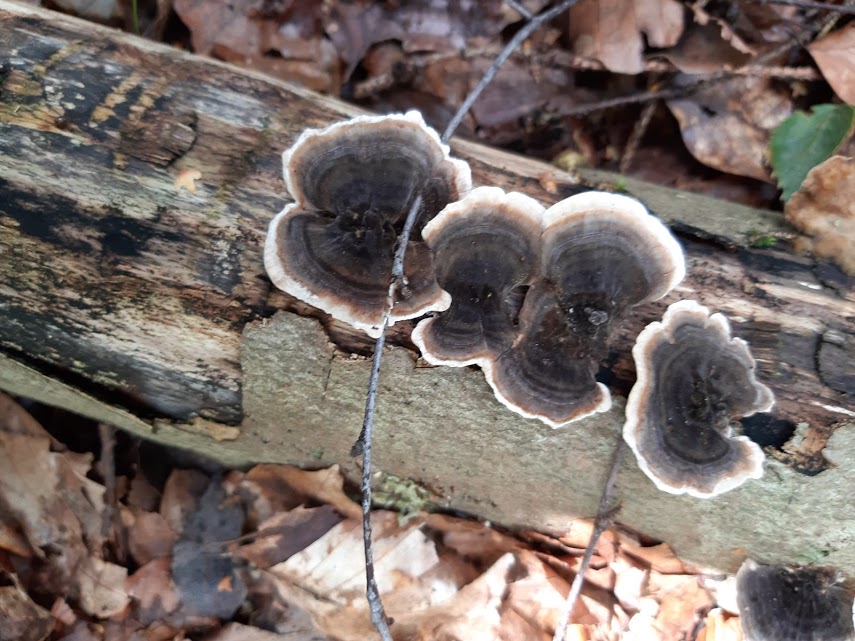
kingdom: Fungi
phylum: Basidiomycota
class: Agaricomycetes
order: Polyporales
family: Polyporaceae
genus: Trametes
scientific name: Trametes versicolor
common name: broget læderporesvamp
